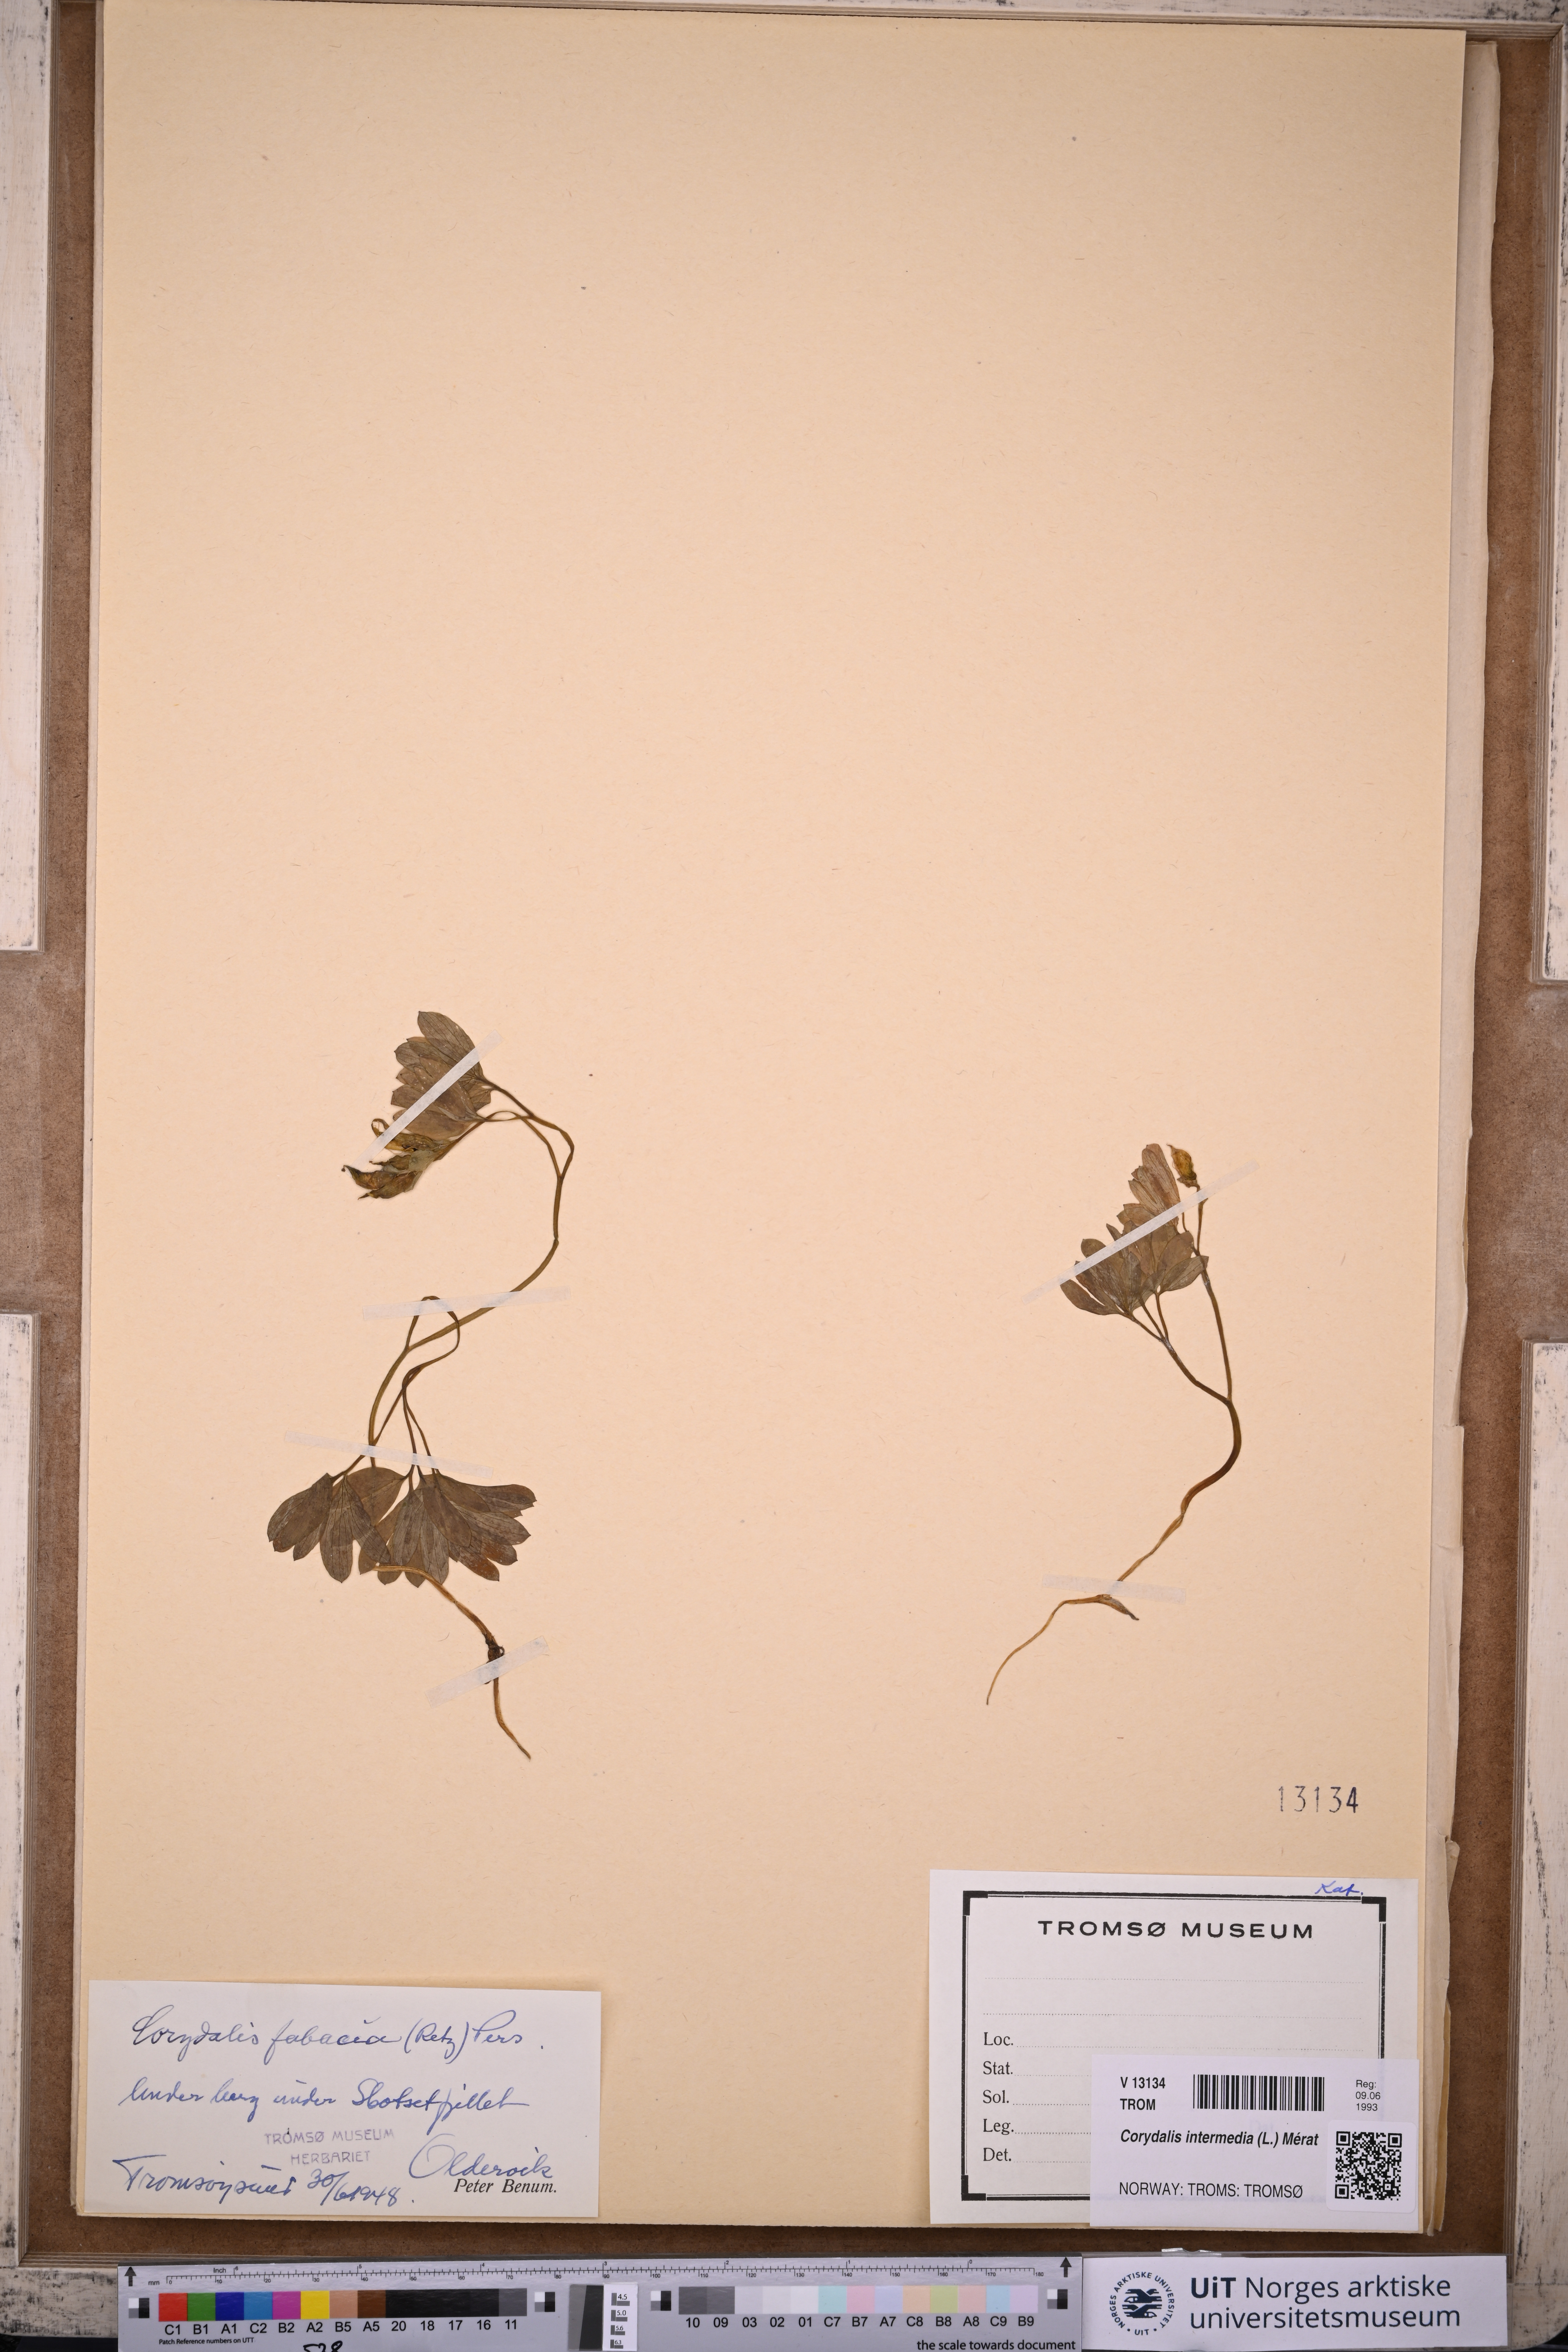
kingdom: Plantae
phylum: Tracheophyta
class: Magnoliopsida
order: Ranunculales
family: Papaveraceae
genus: Corydalis
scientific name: Corydalis intermedia
